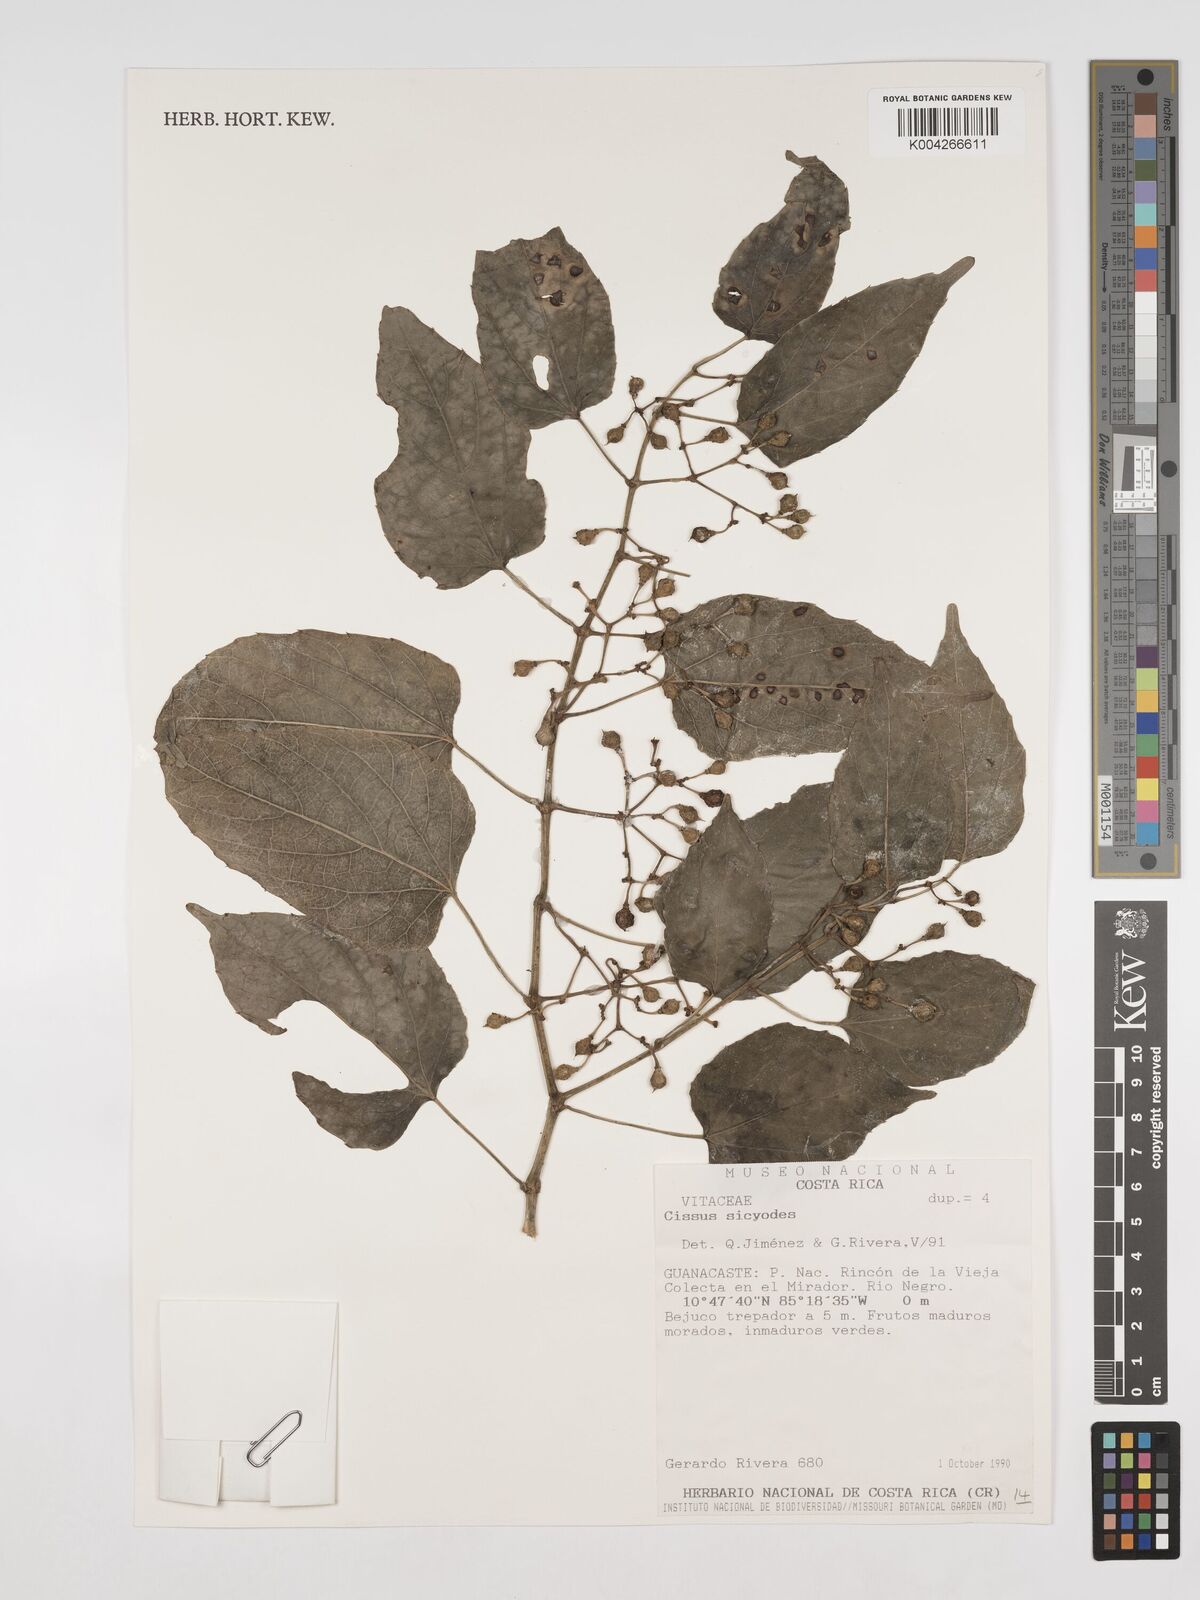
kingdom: Plantae
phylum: Tracheophyta
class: Magnoliopsida
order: Vitales
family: Vitaceae
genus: Cissus
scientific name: Cissus
